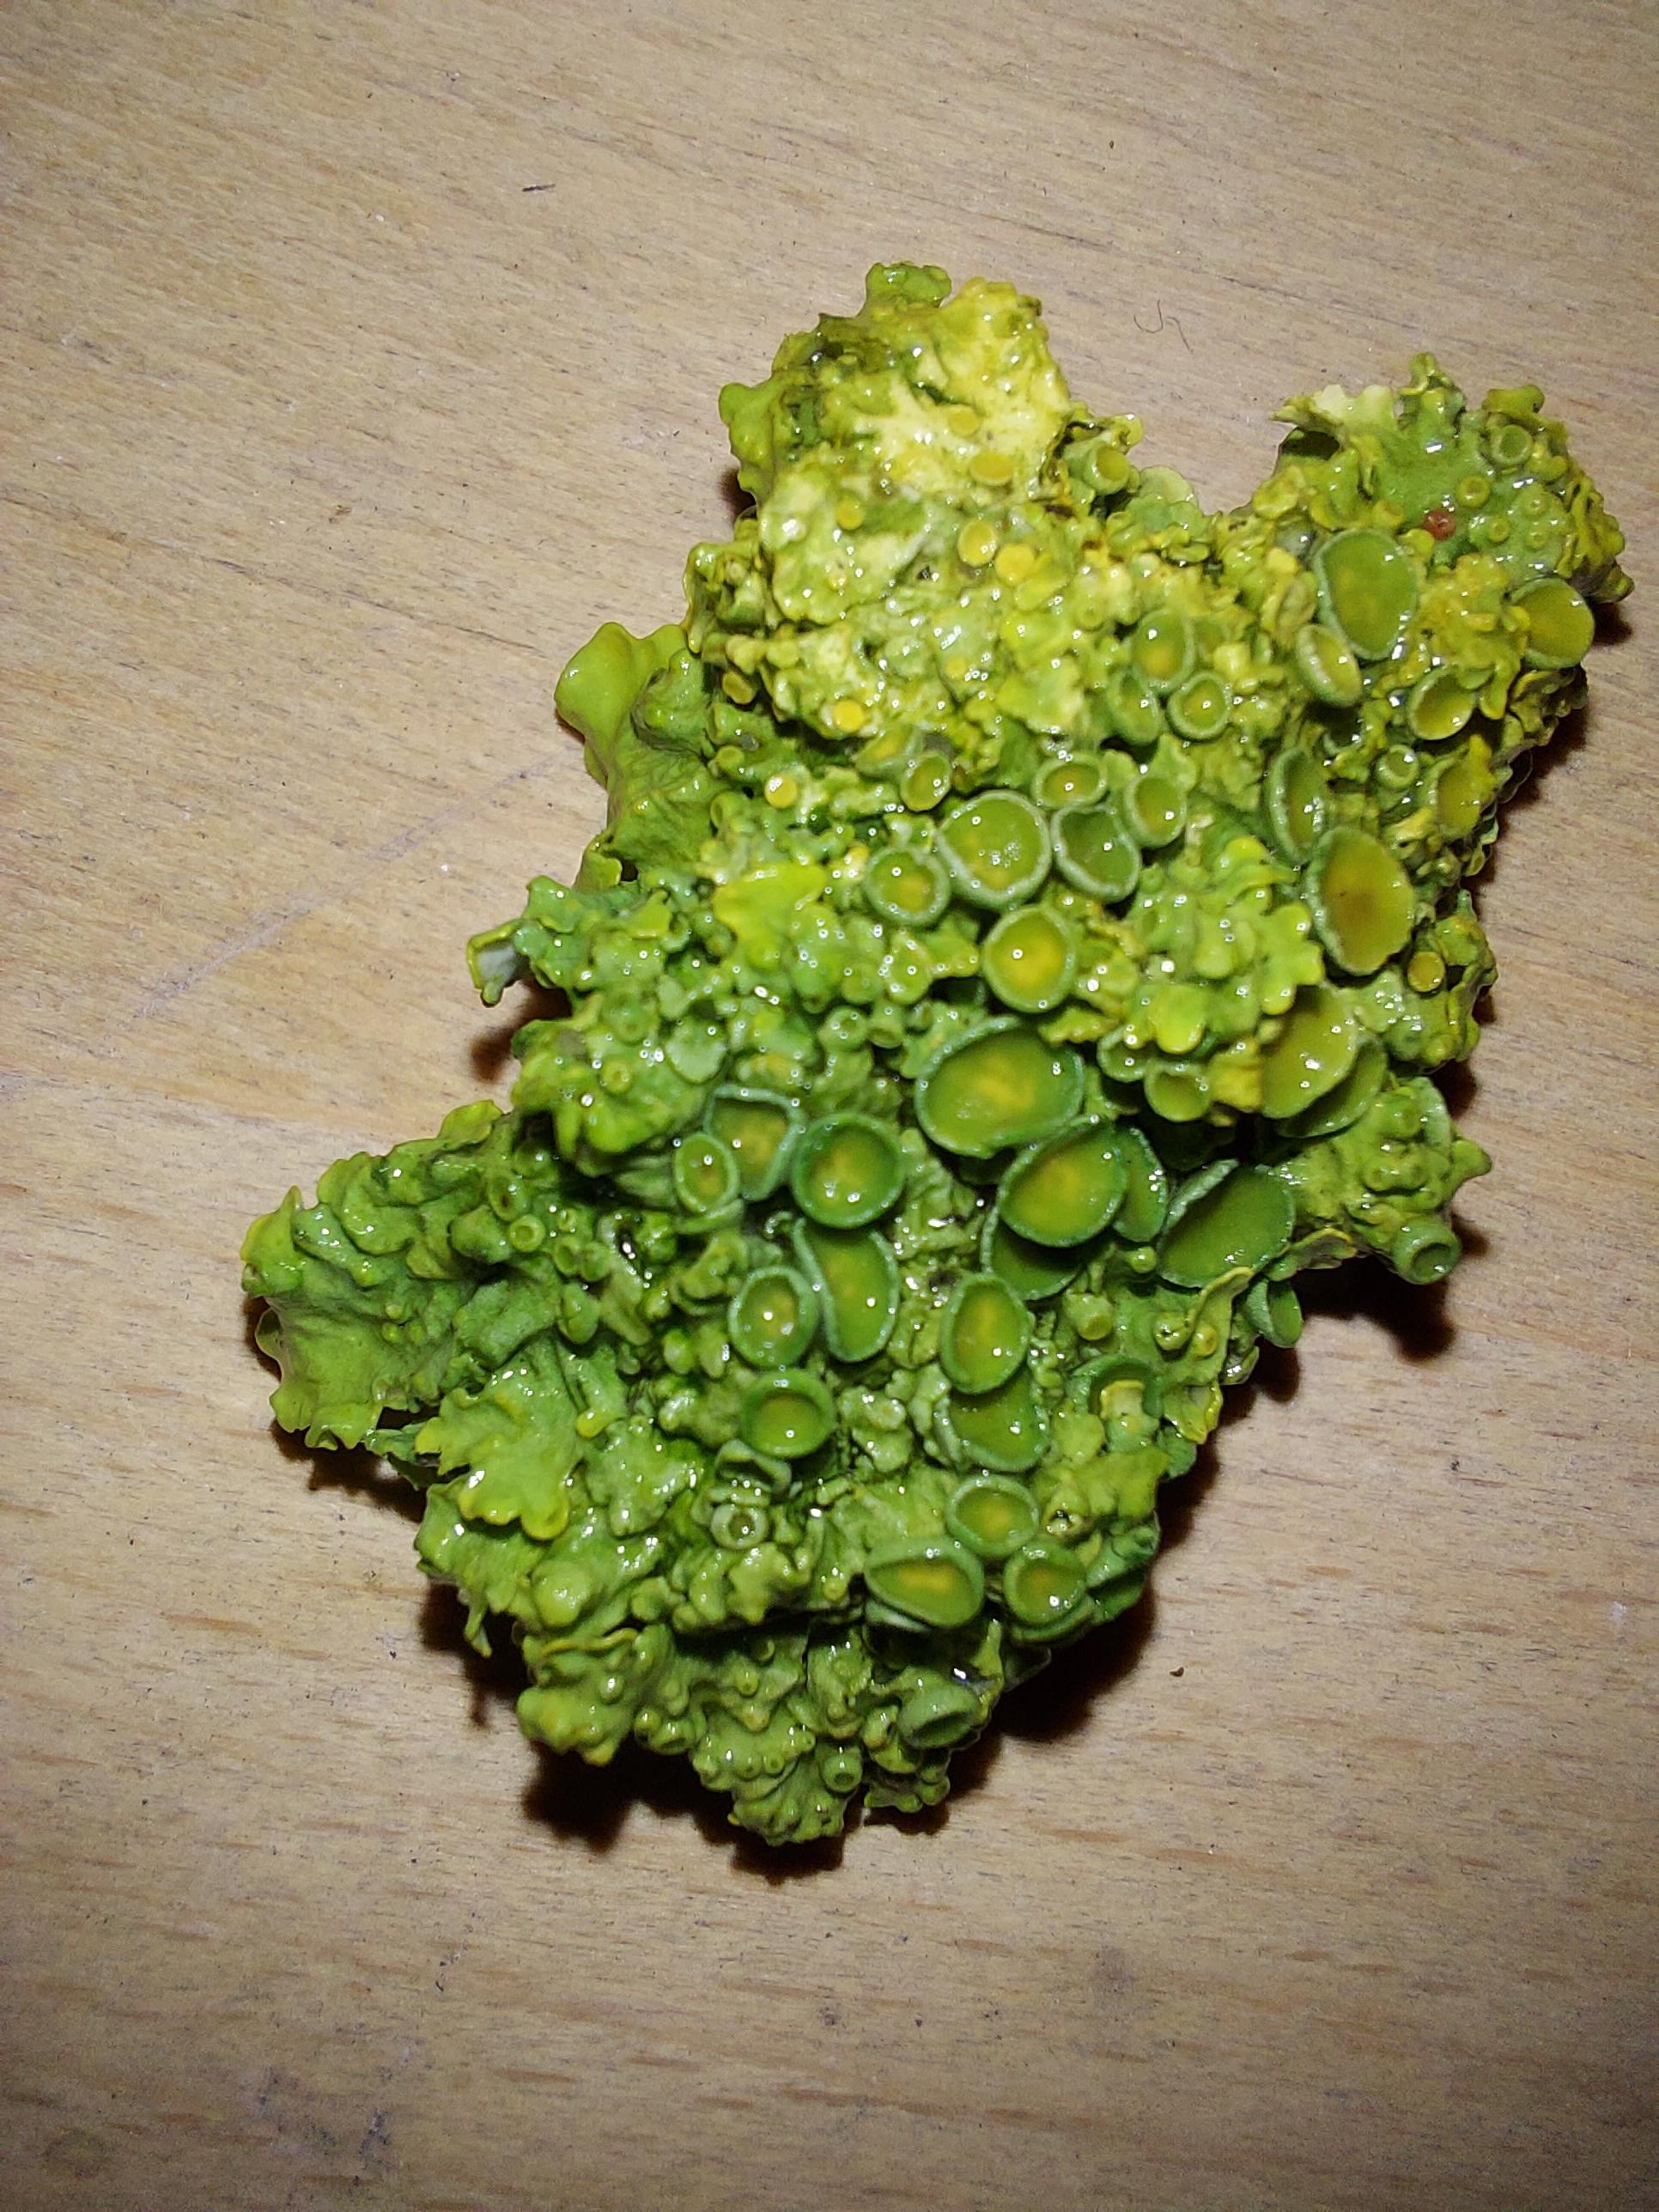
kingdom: Fungi
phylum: Ascomycota
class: Lecanoromycetes
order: Teloschistales
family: Teloschistaceae
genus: Xanthoria
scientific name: Xanthoria parietina
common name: almindelig væggelav
